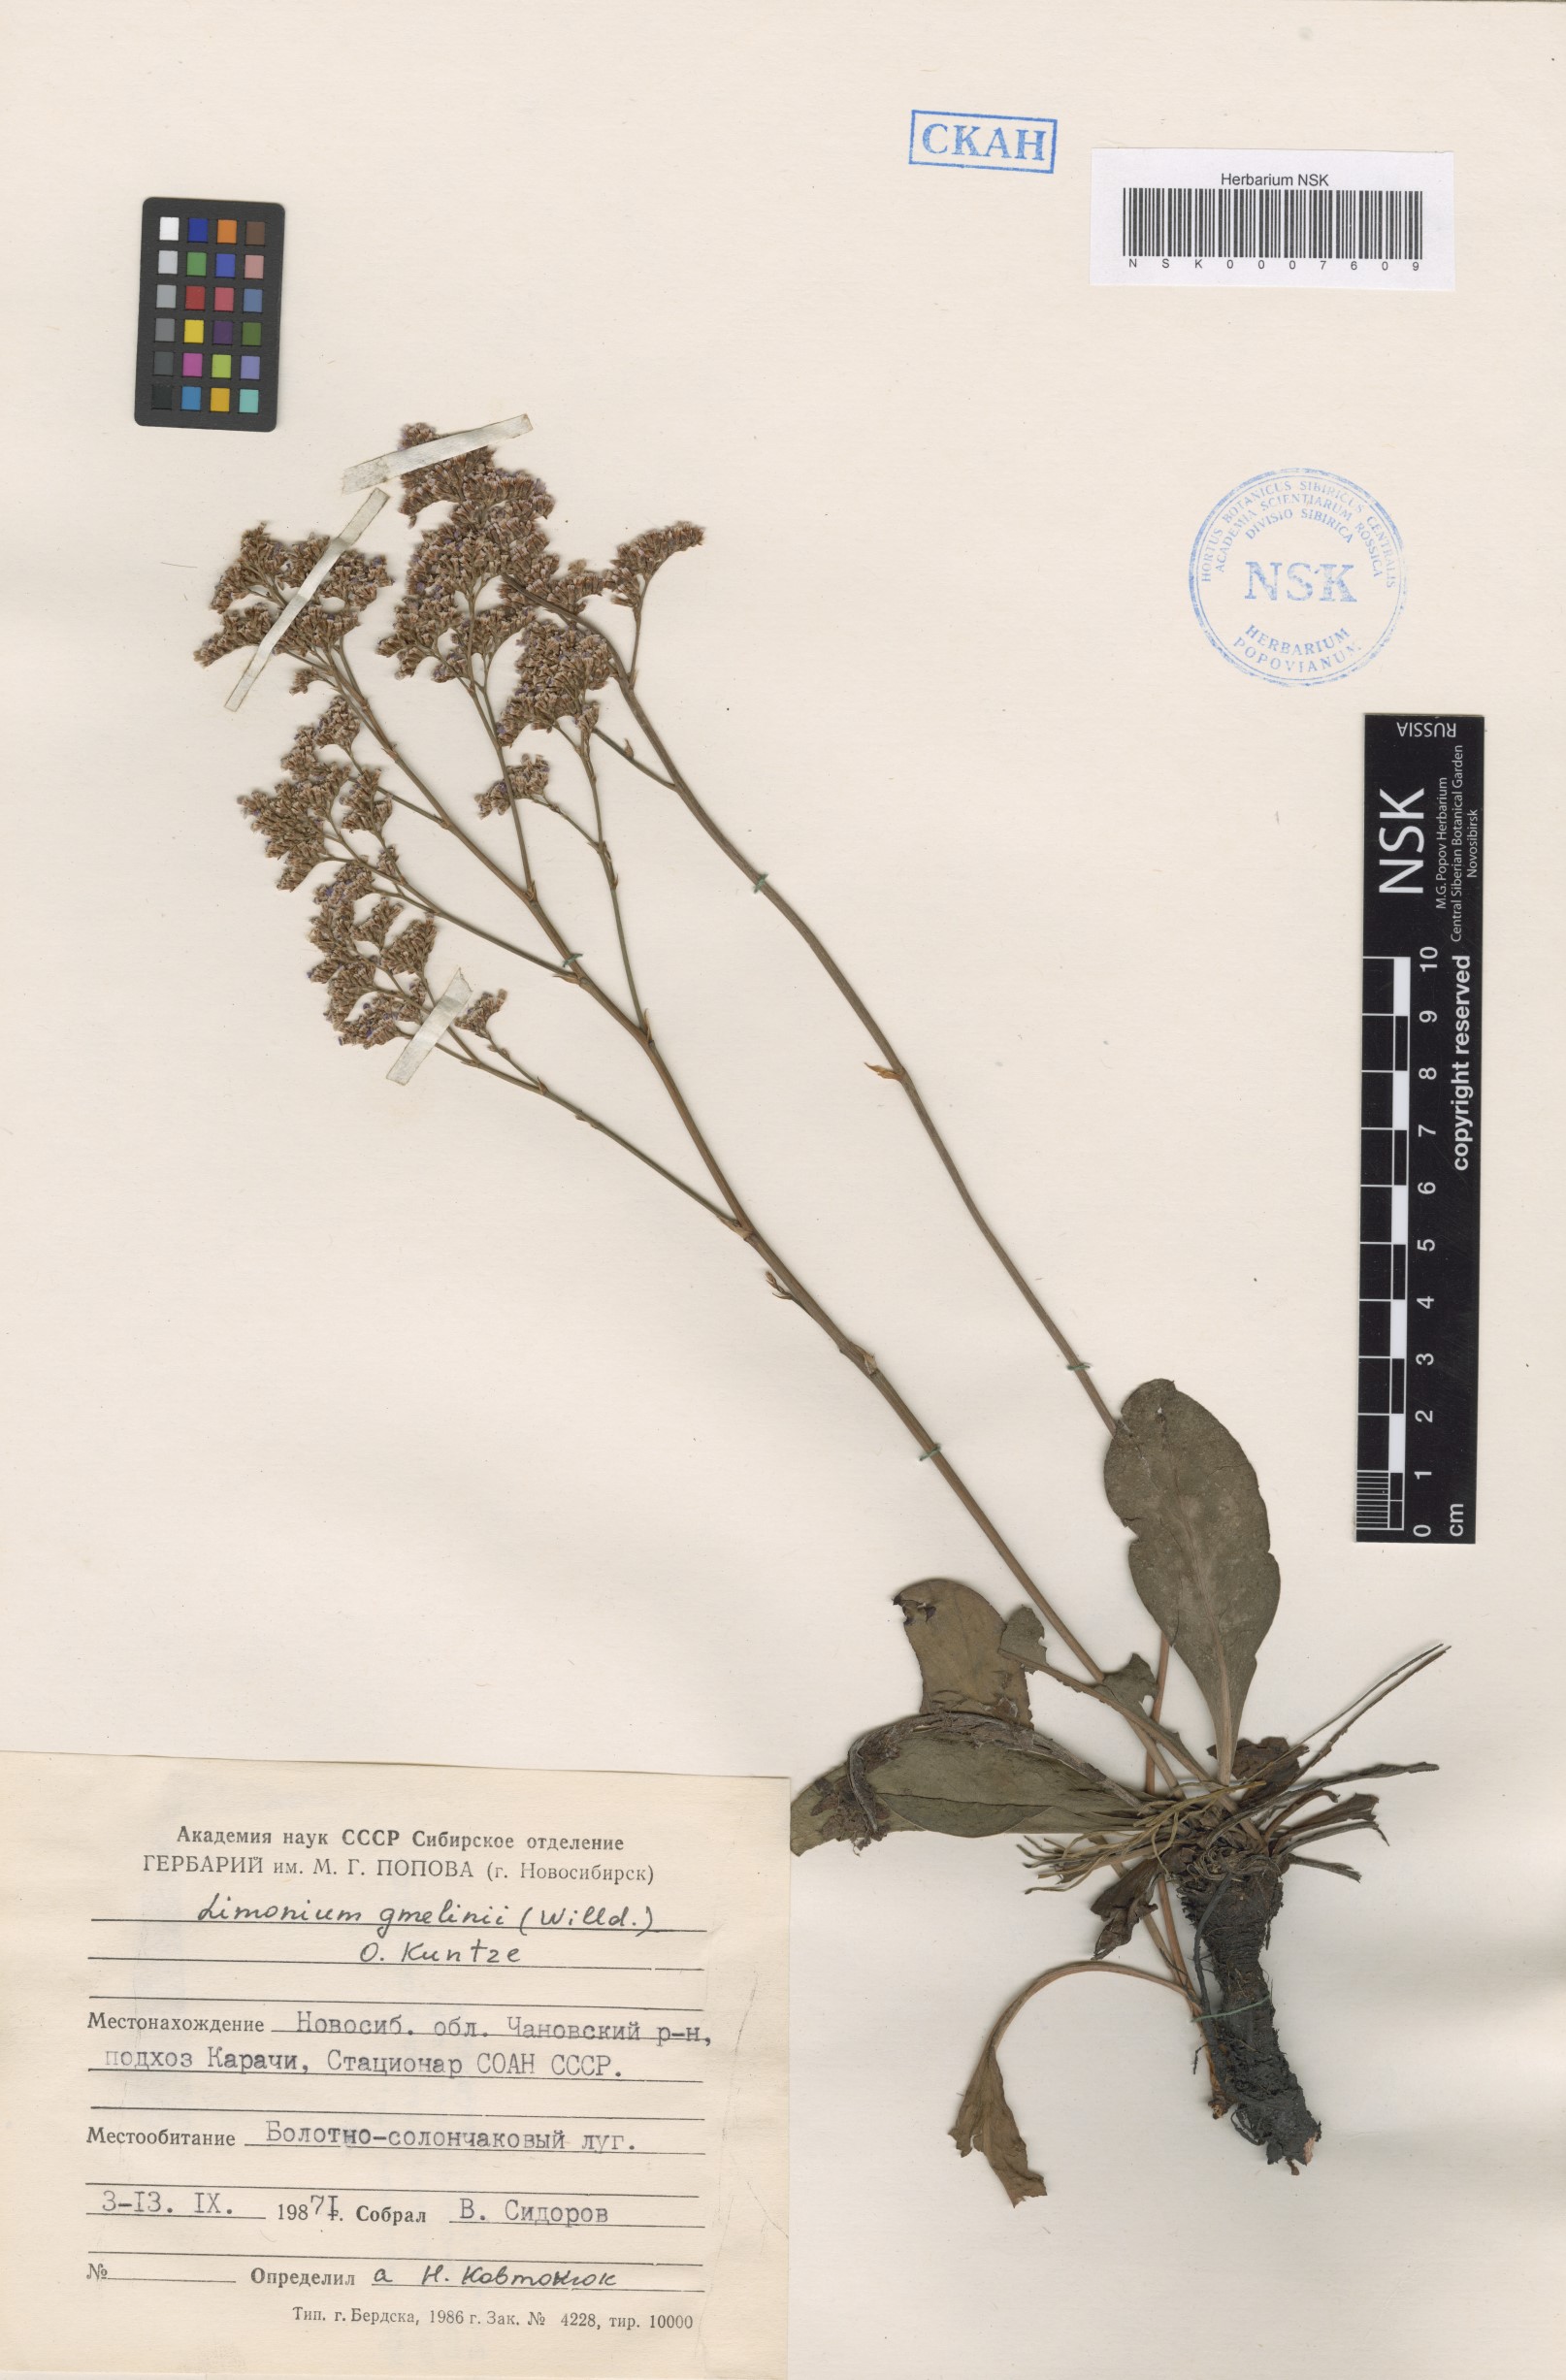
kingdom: Plantae
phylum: Tracheophyta
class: Magnoliopsida
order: Caryophyllales
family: Plumbaginaceae
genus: Limonium
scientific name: Limonium gmelini
